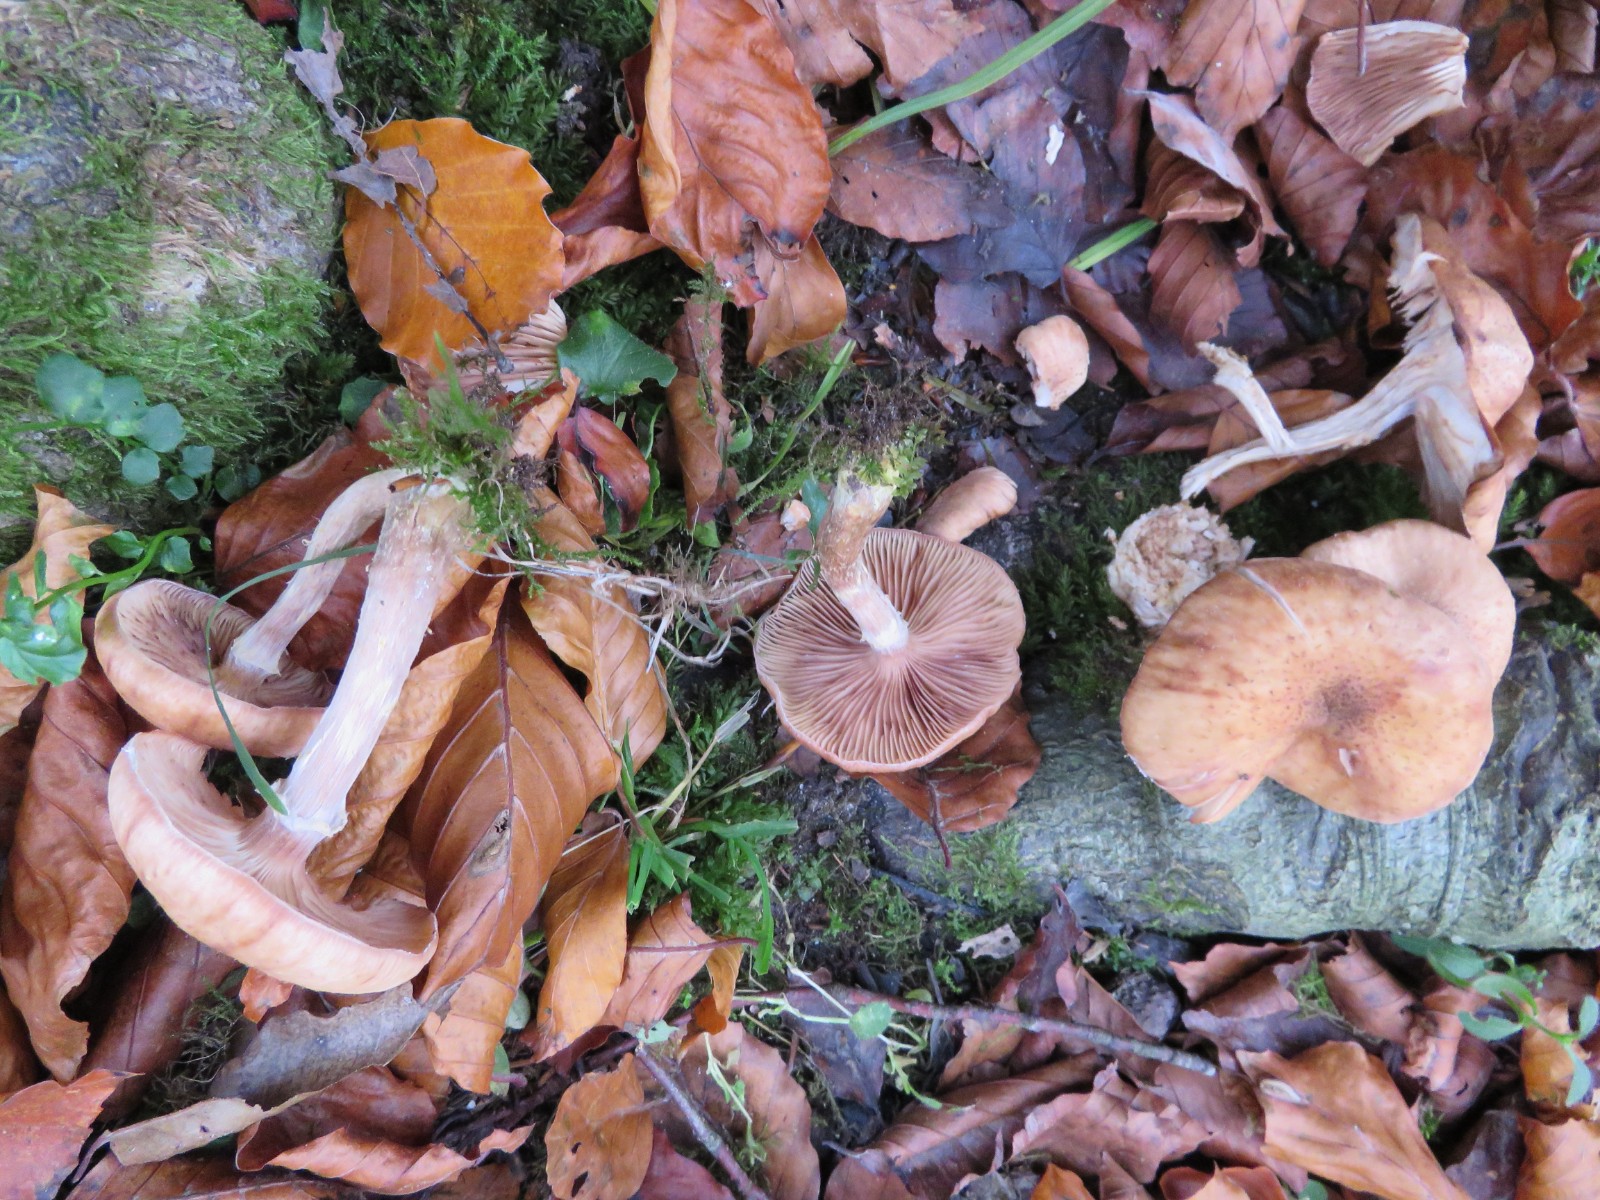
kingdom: Fungi
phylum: Basidiomycota
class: Agaricomycetes
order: Agaricales
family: Physalacriaceae
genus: Armillaria
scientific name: Armillaria lutea
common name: køllestokket honningsvamp
